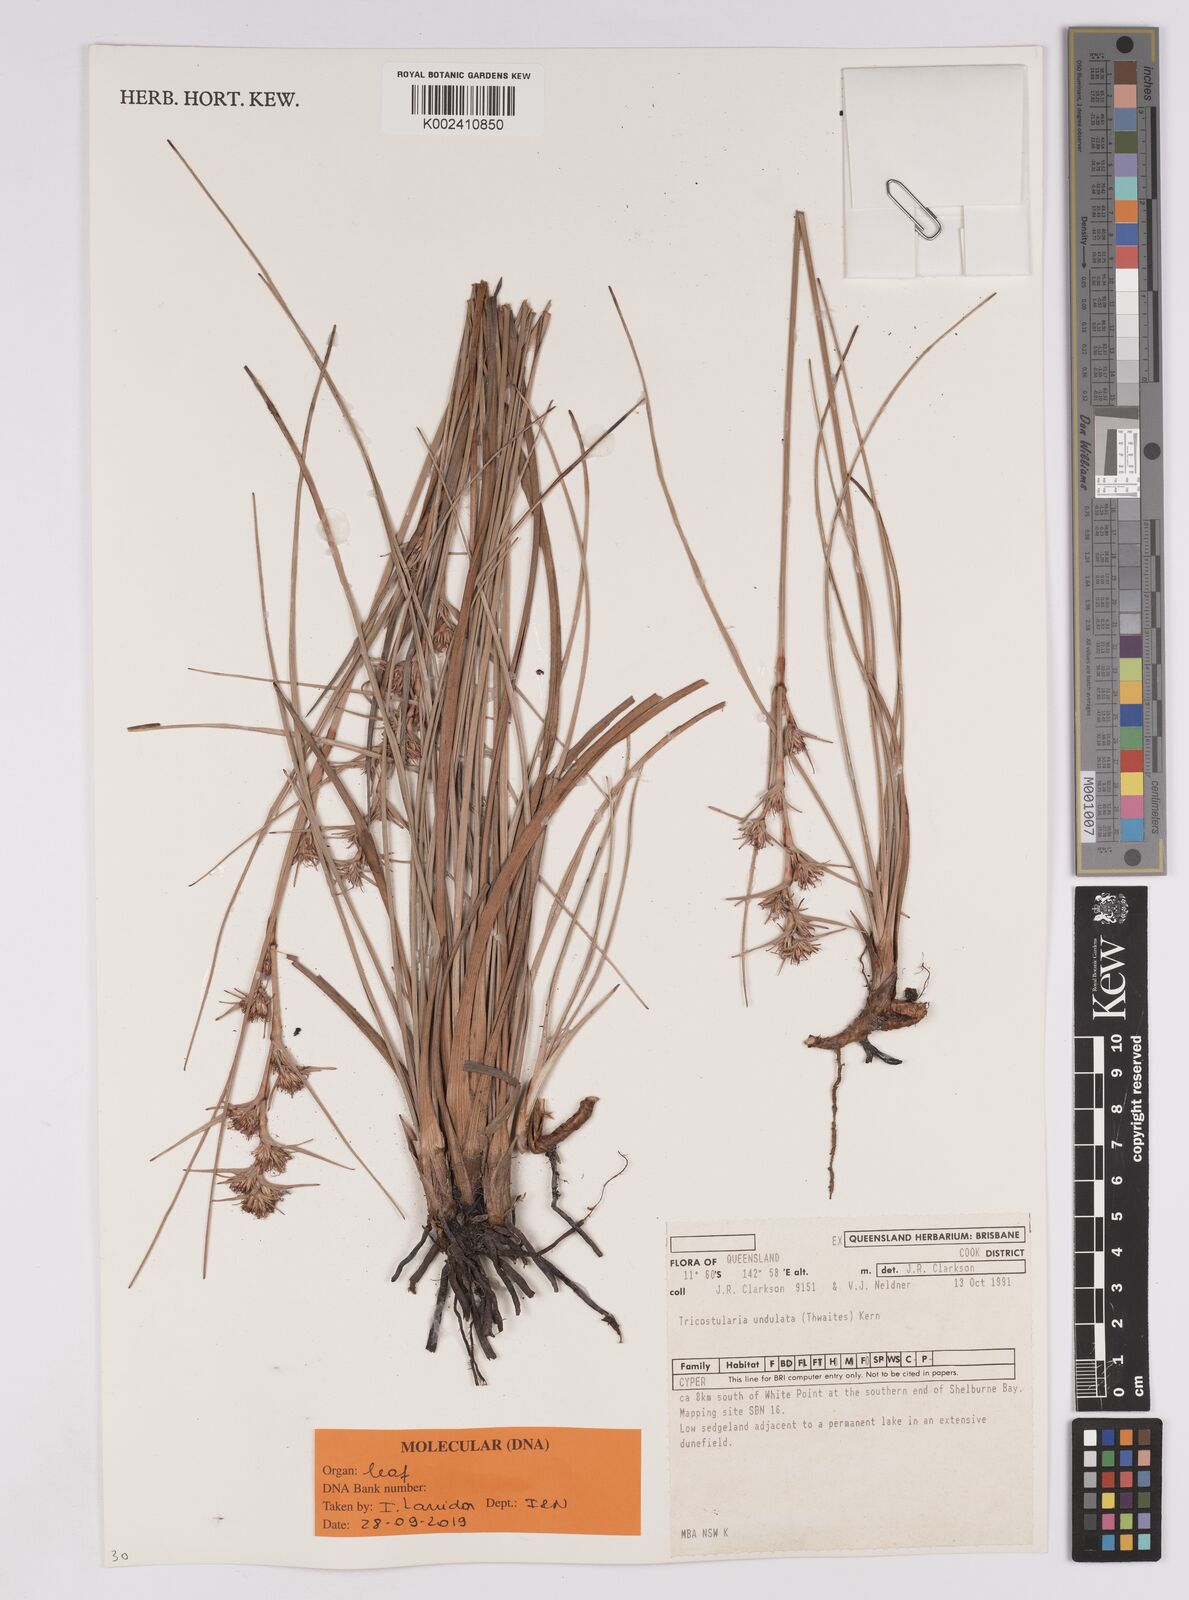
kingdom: Plantae
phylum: Tracheophyta
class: Liliopsida
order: Poales
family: Cyperaceae
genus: Anthelepis
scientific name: Anthelepis undulata
